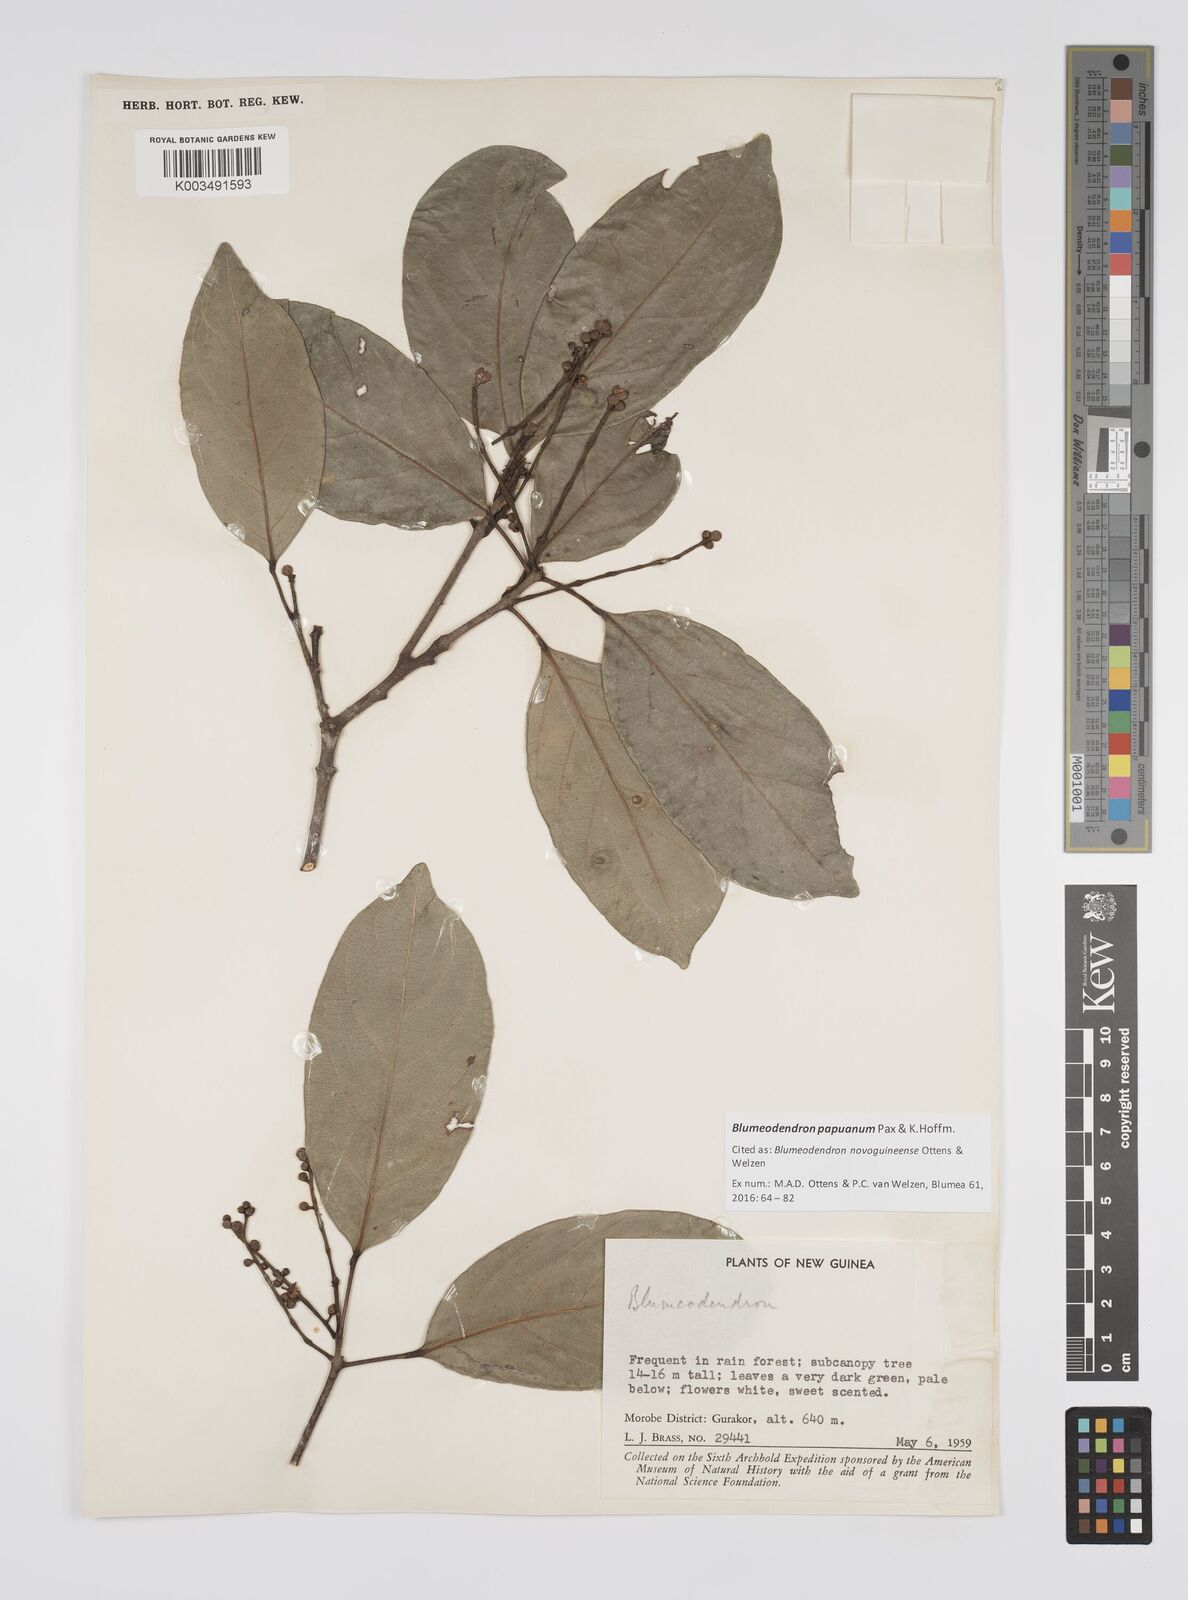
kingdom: Plantae
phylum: Tracheophyta
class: Magnoliopsida
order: Malpighiales
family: Euphorbiaceae
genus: Blumeodendron
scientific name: Blumeodendron papuanum
